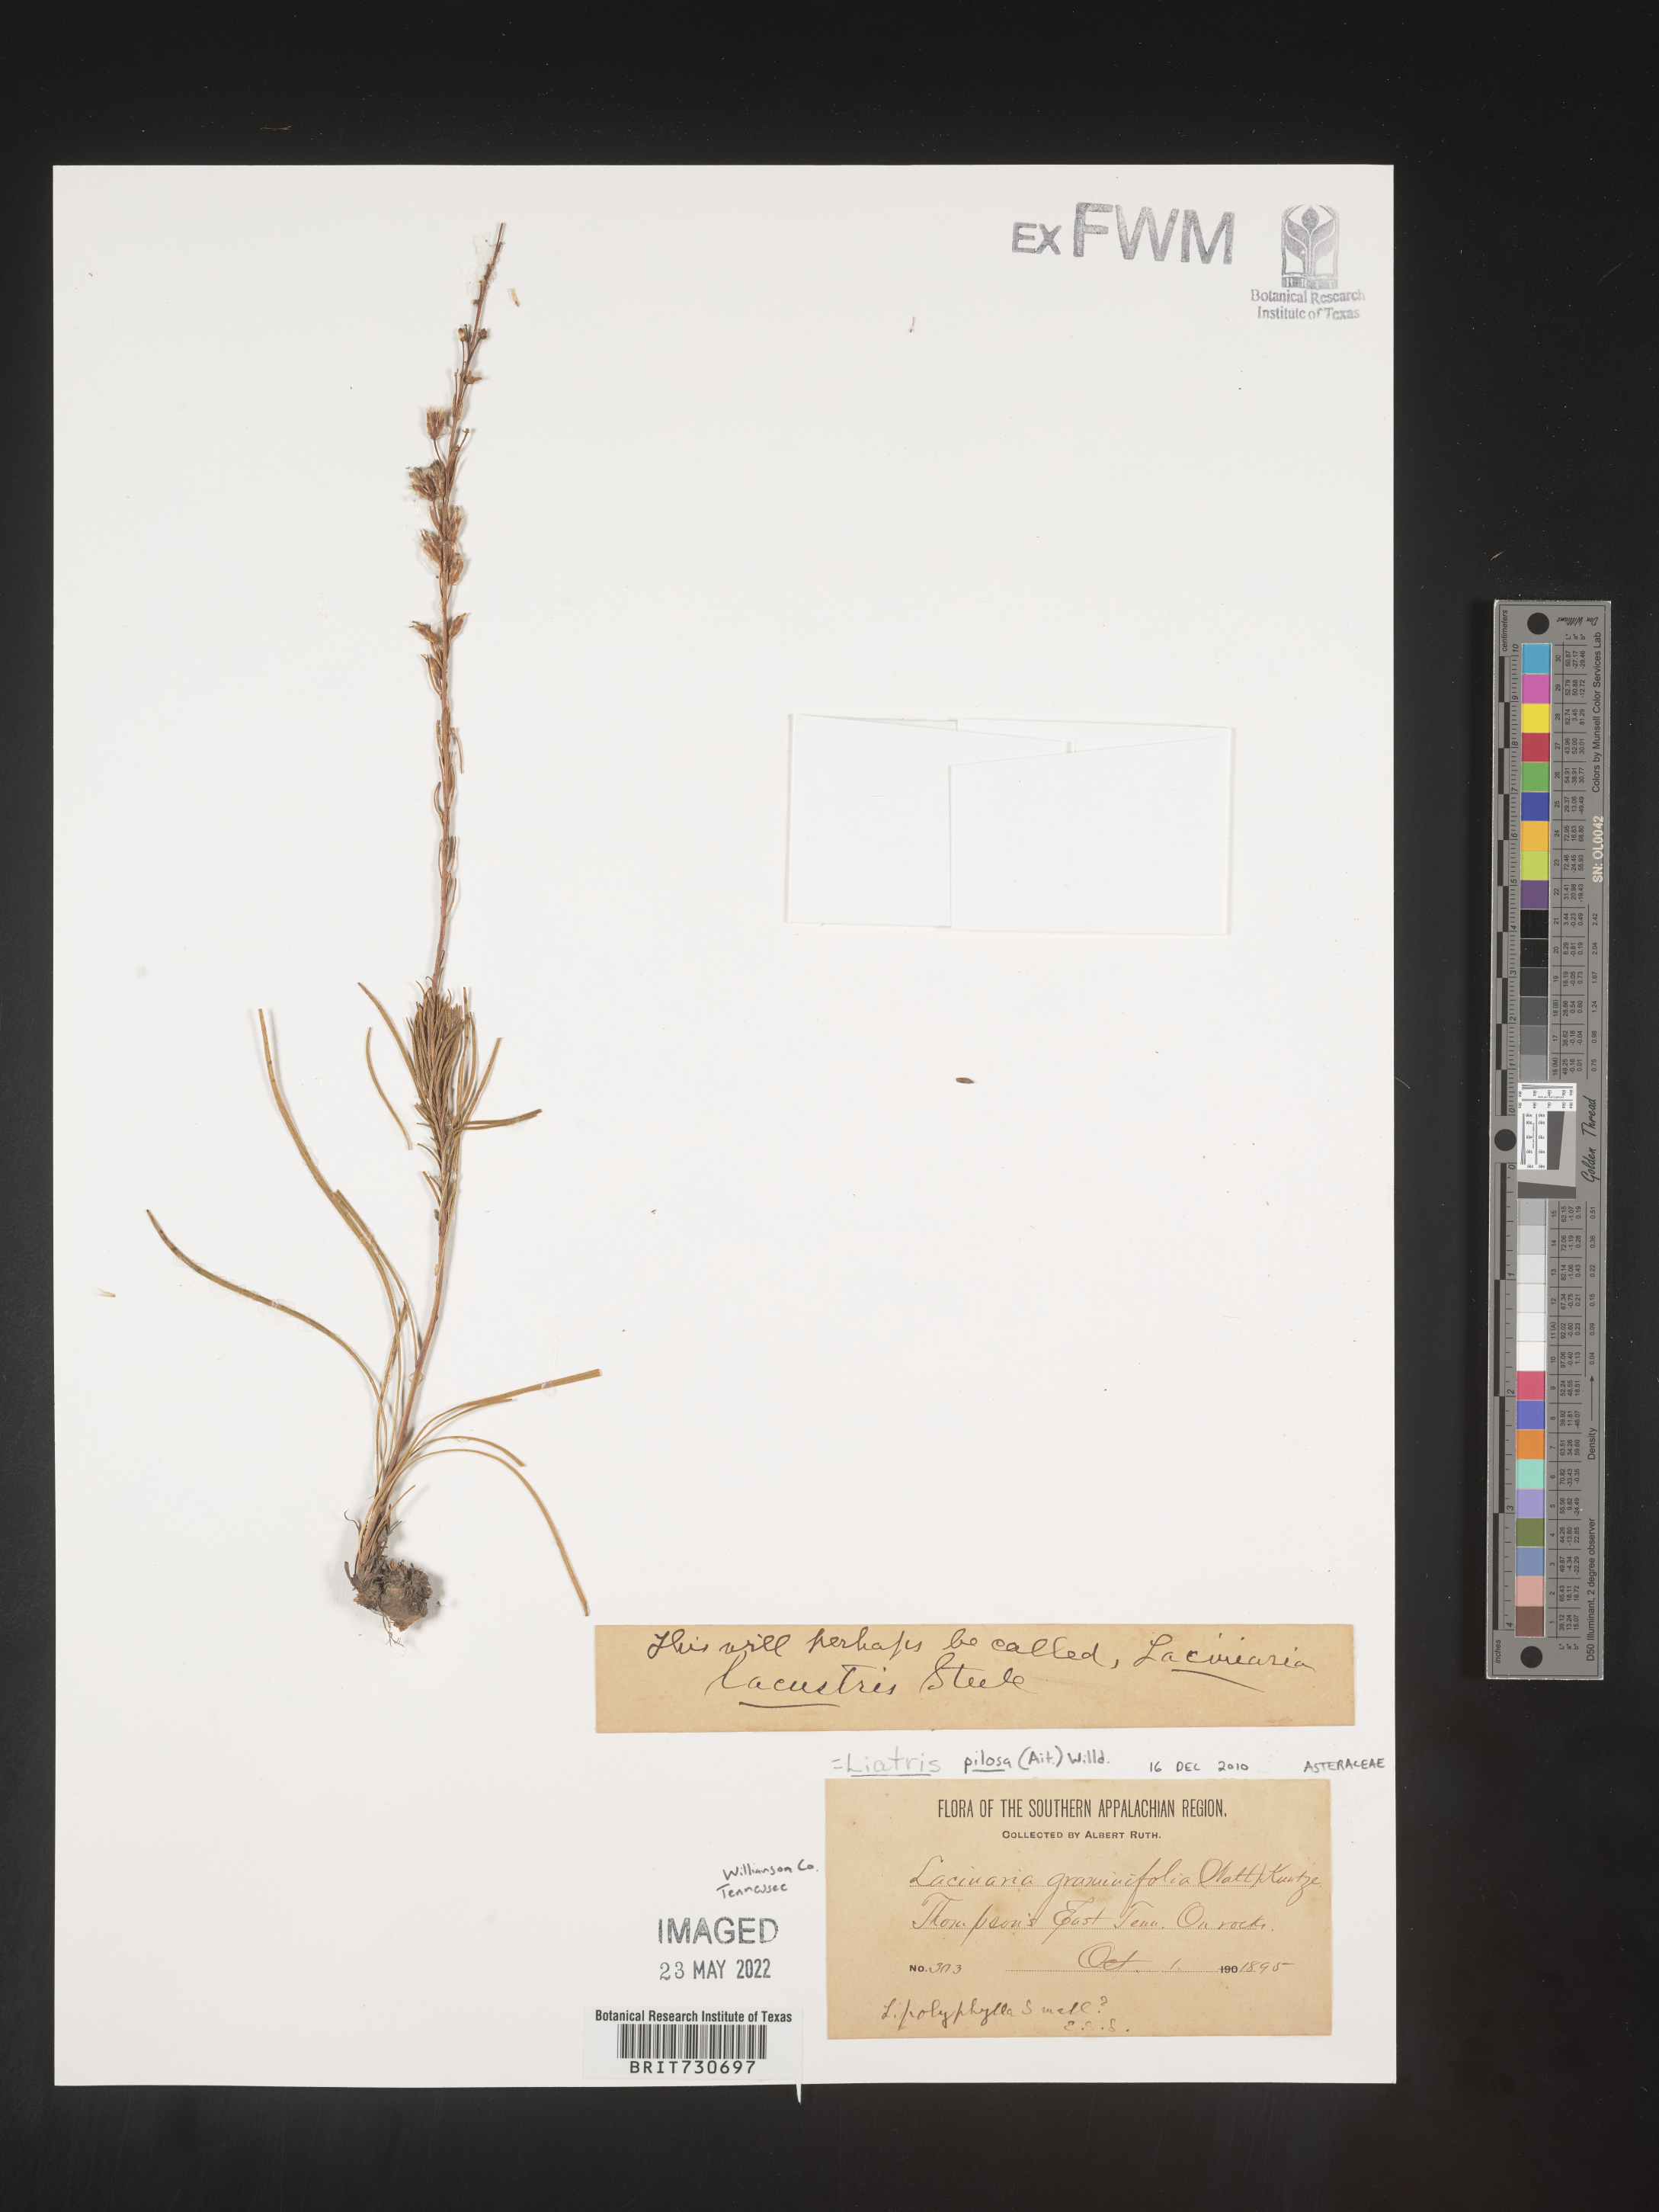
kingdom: Plantae
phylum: Tracheophyta
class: Magnoliopsida
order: Asterales
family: Asteraceae
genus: Liatris
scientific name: Liatris pilosa
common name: Grass-leaf gayfeather
